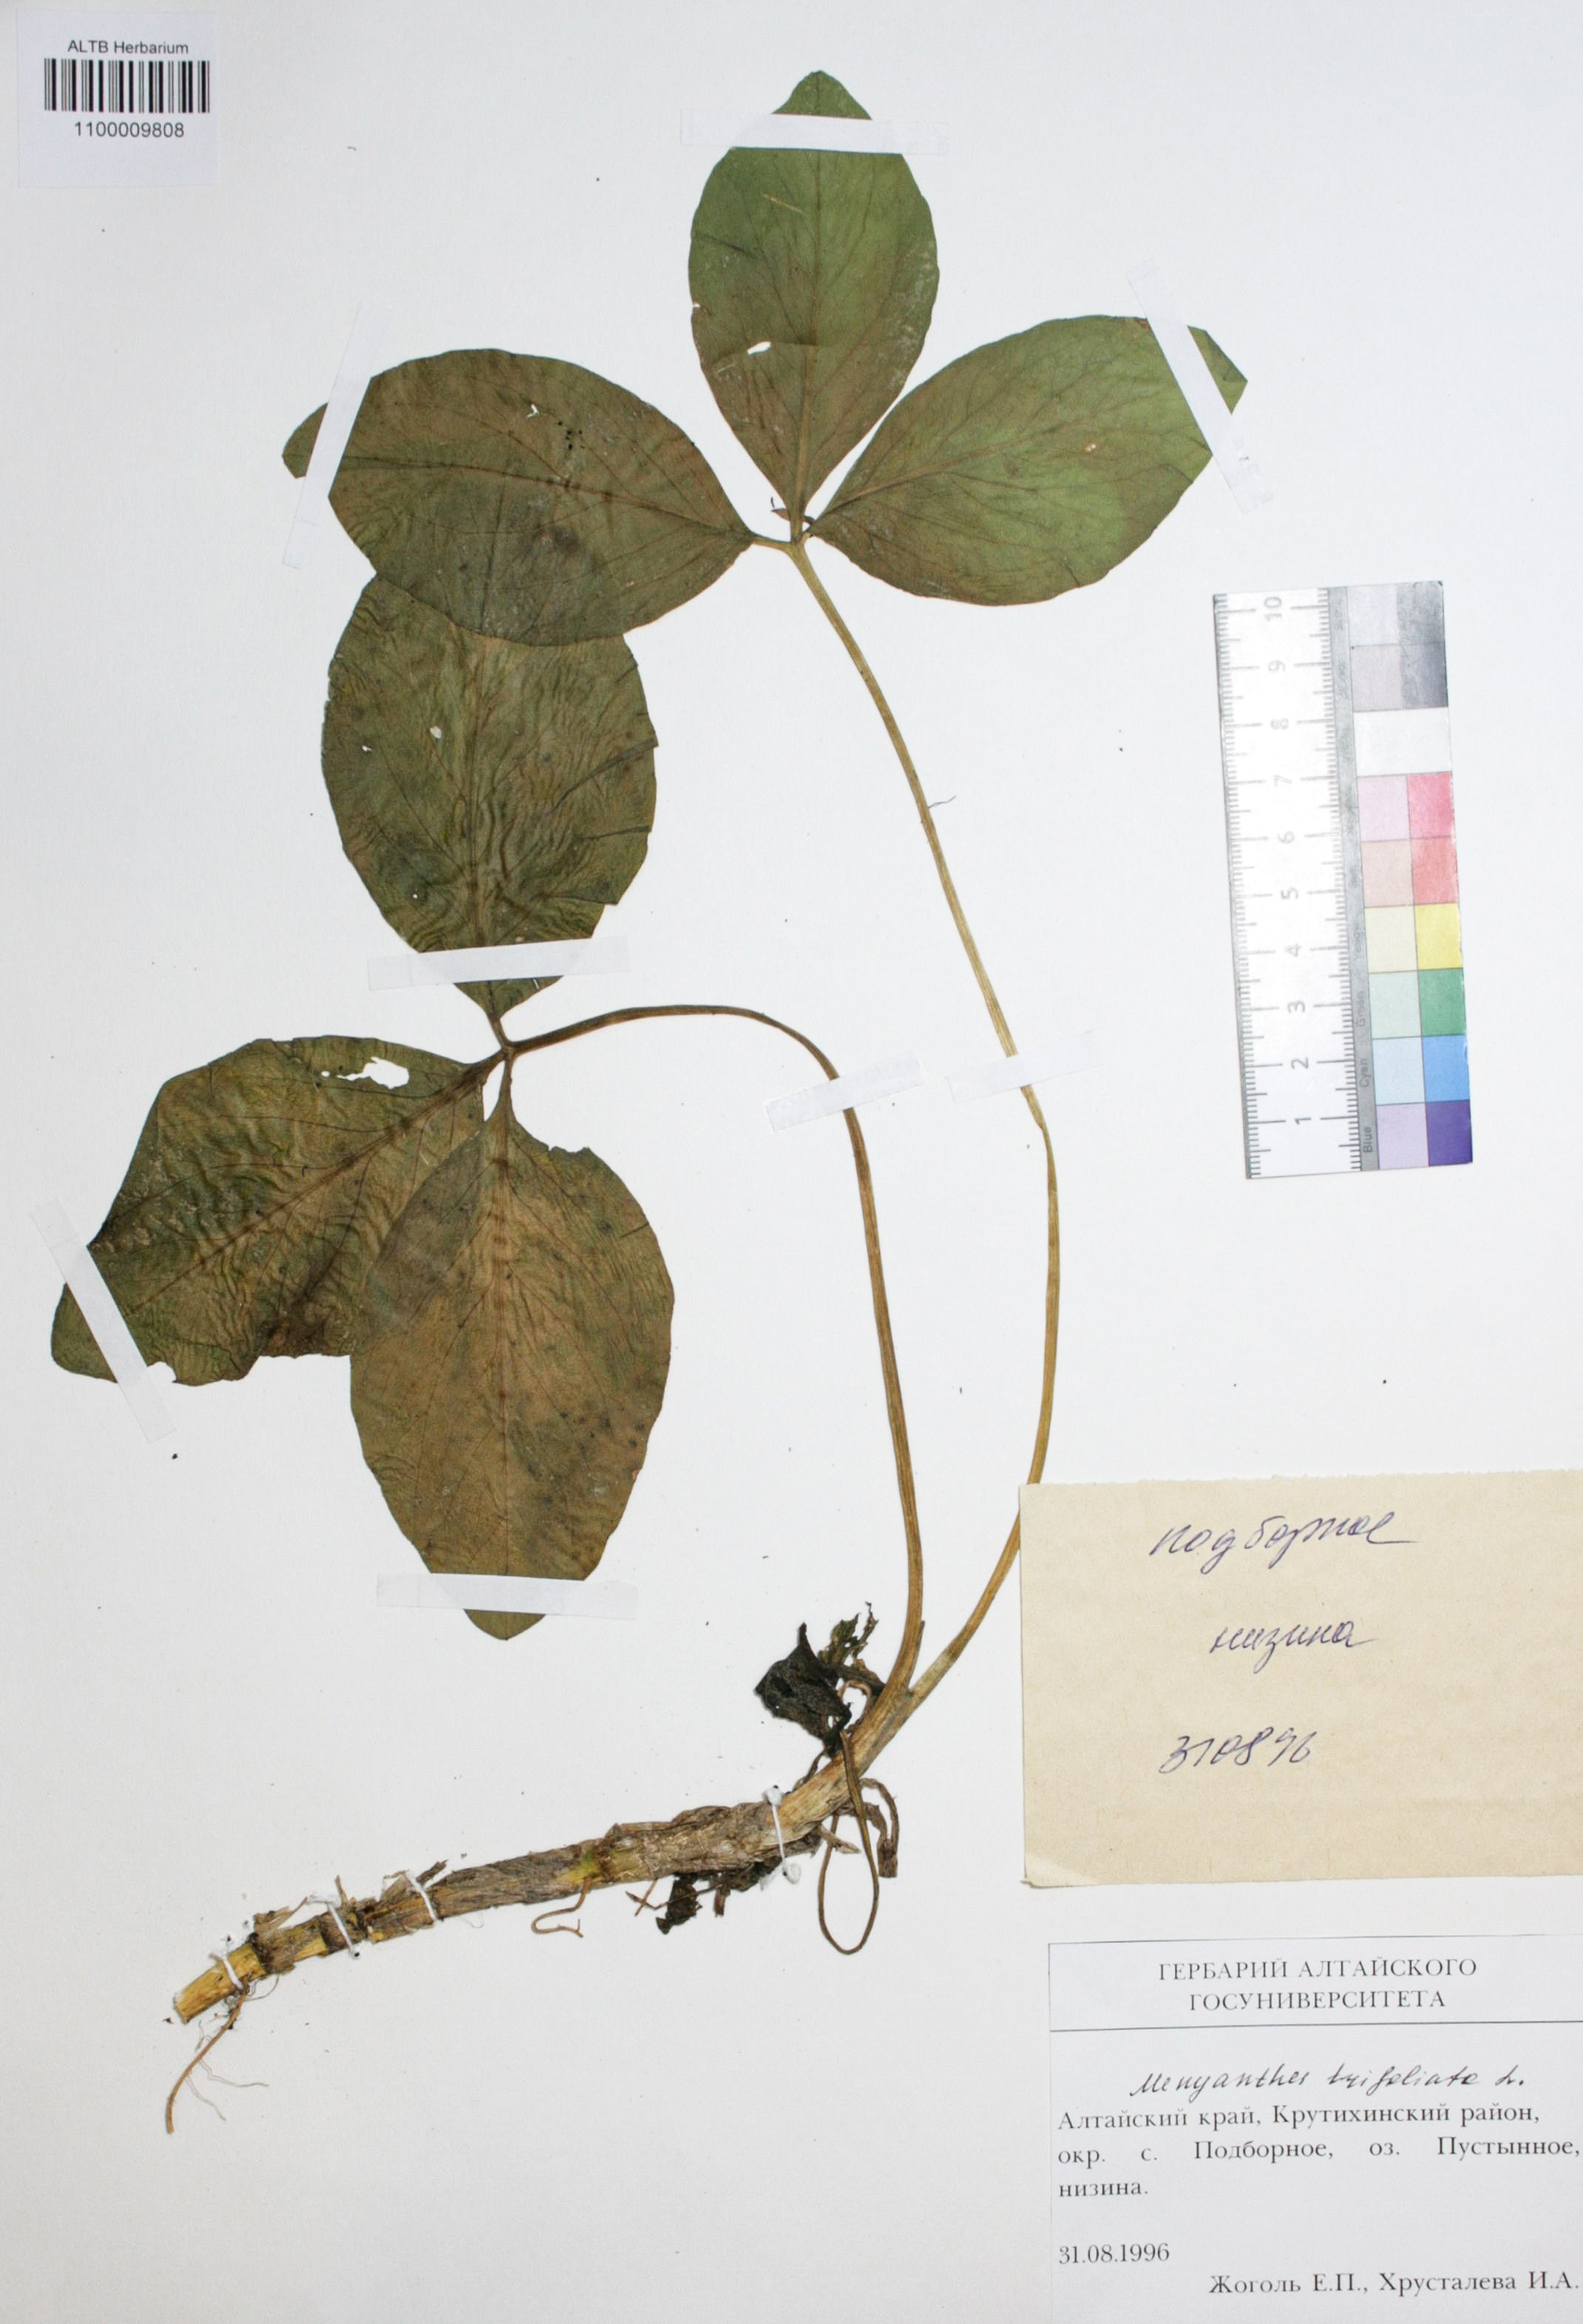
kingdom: Plantae
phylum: Tracheophyta
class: Magnoliopsida
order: Asterales
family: Menyanthaceae
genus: Menyanthes
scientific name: Menyanthes trifoliata
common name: Bogbean
